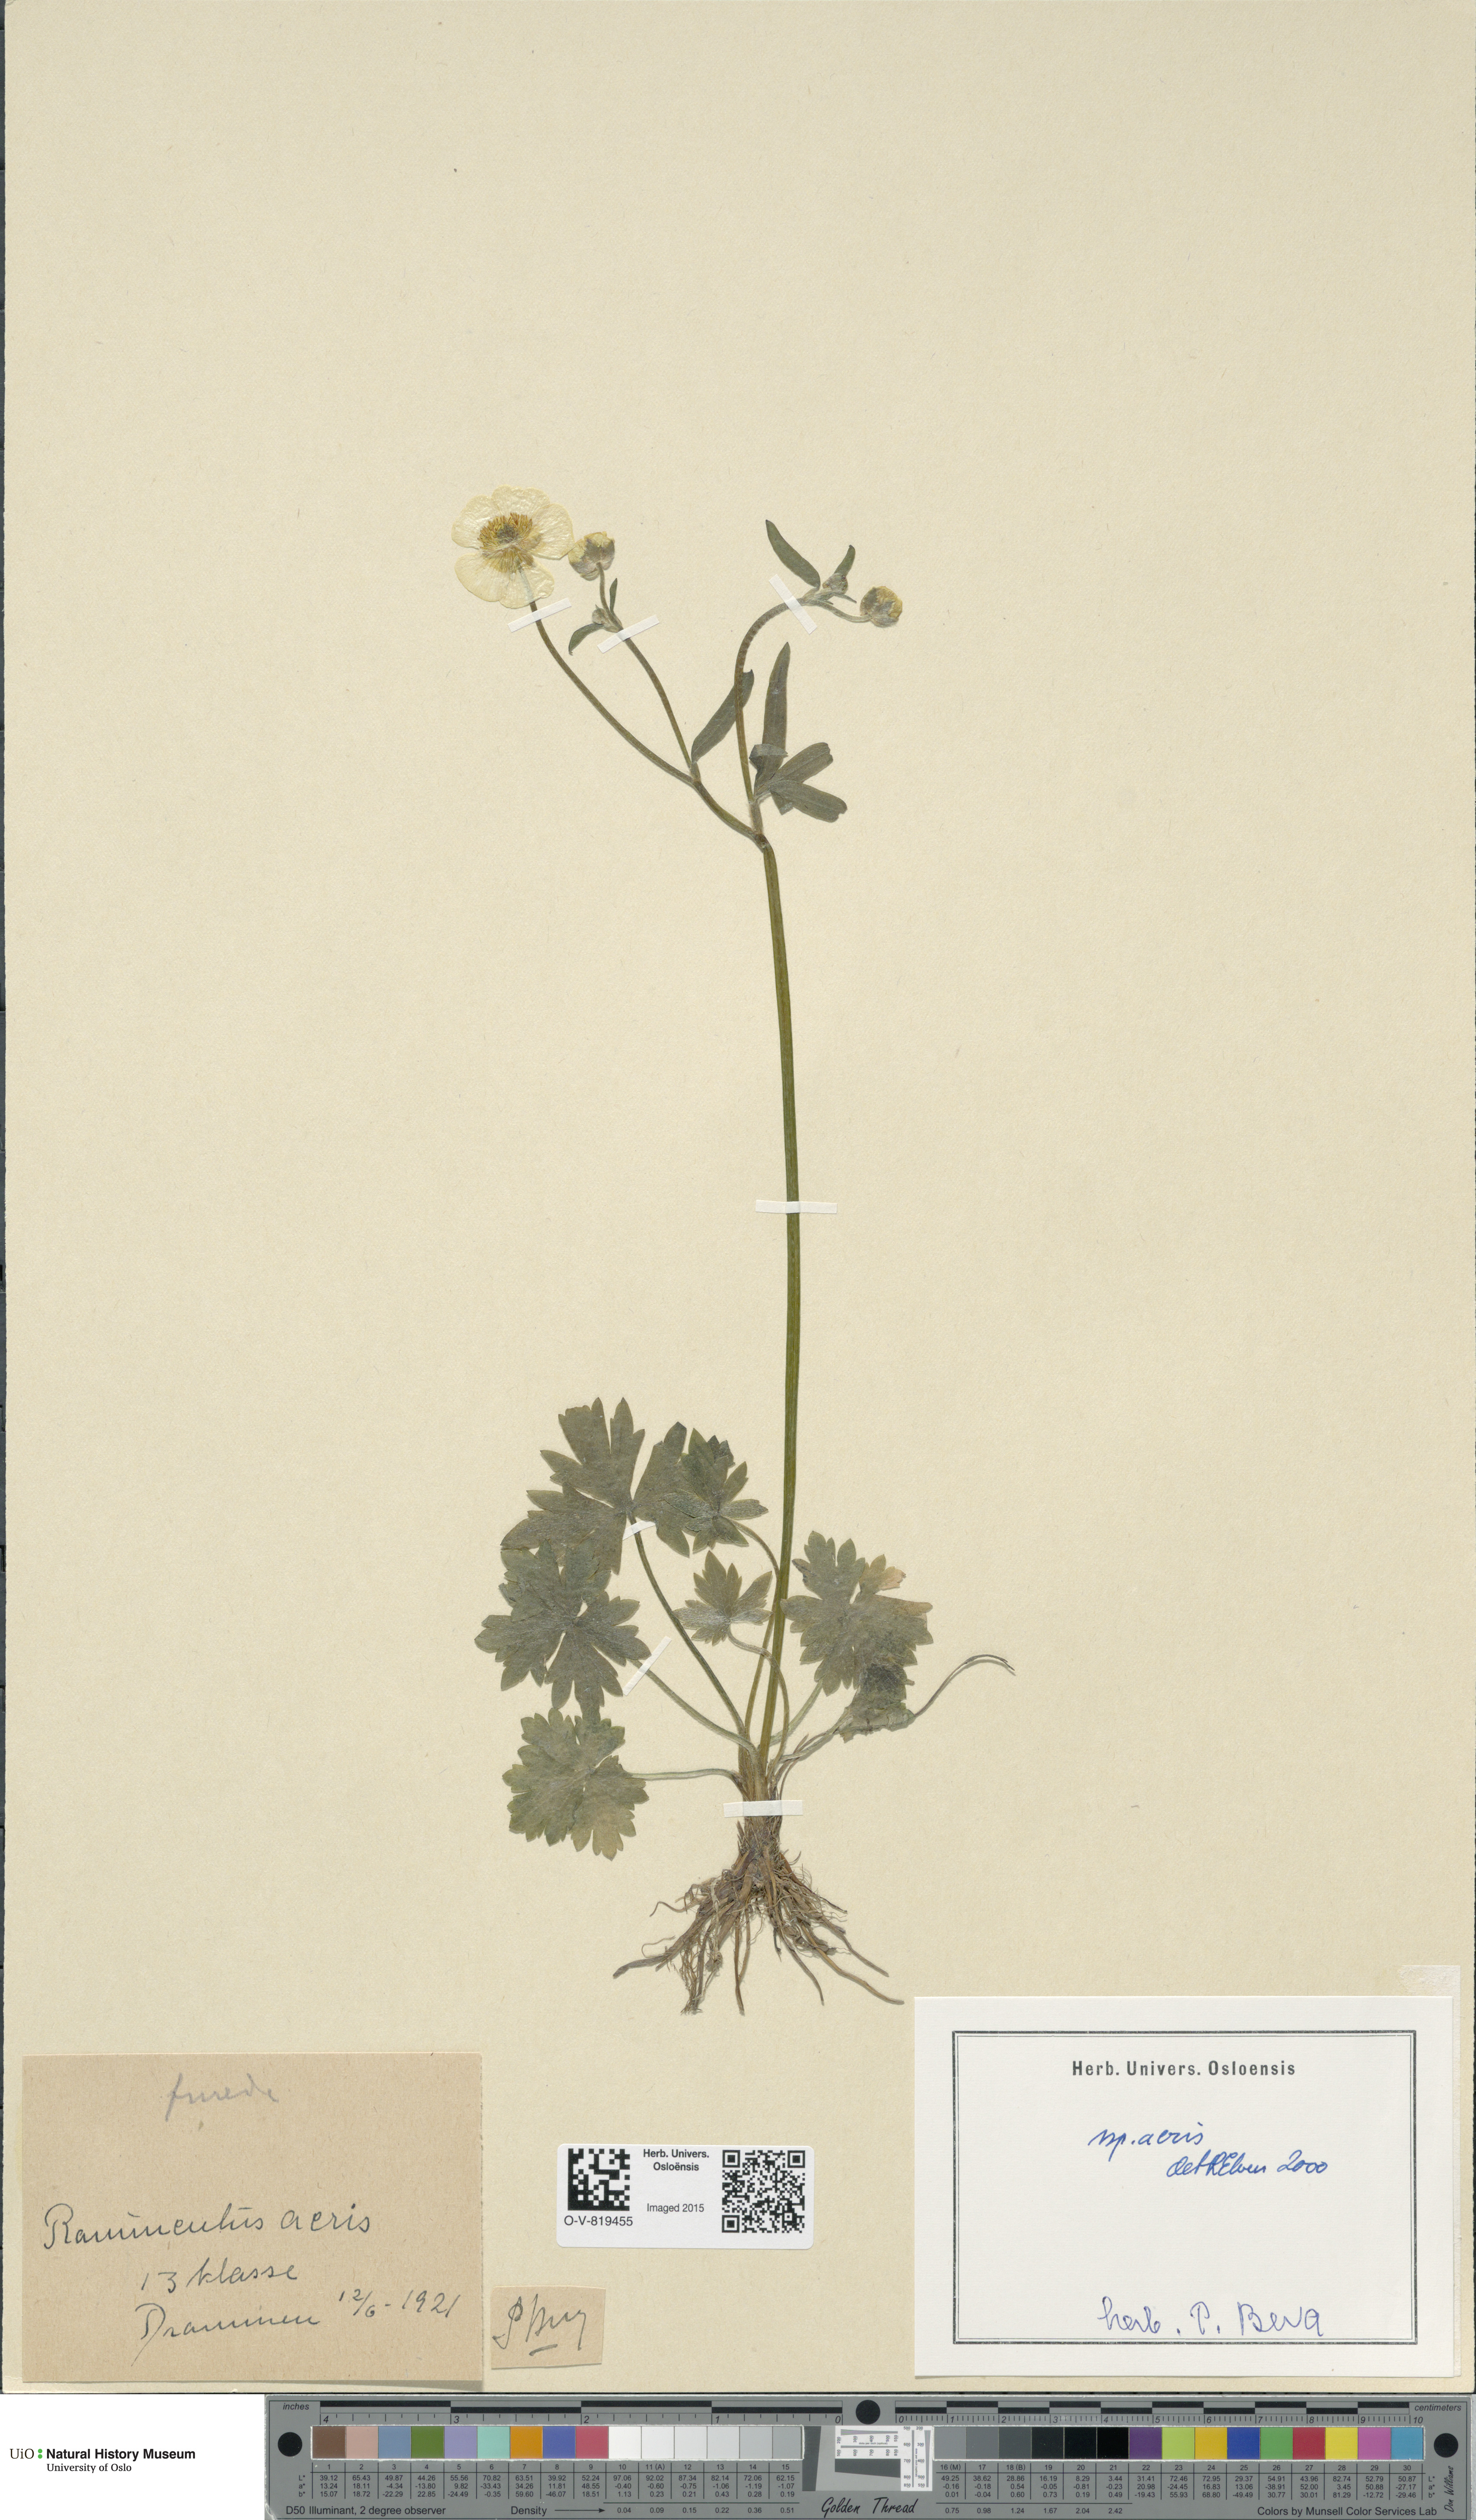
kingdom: Plantae
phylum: Tracheophyta
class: Magnoliopsida
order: Ranunculales
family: Ranunculaceae
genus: Ranunculus
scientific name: Ranunculus acris
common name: Meadow buttercup
